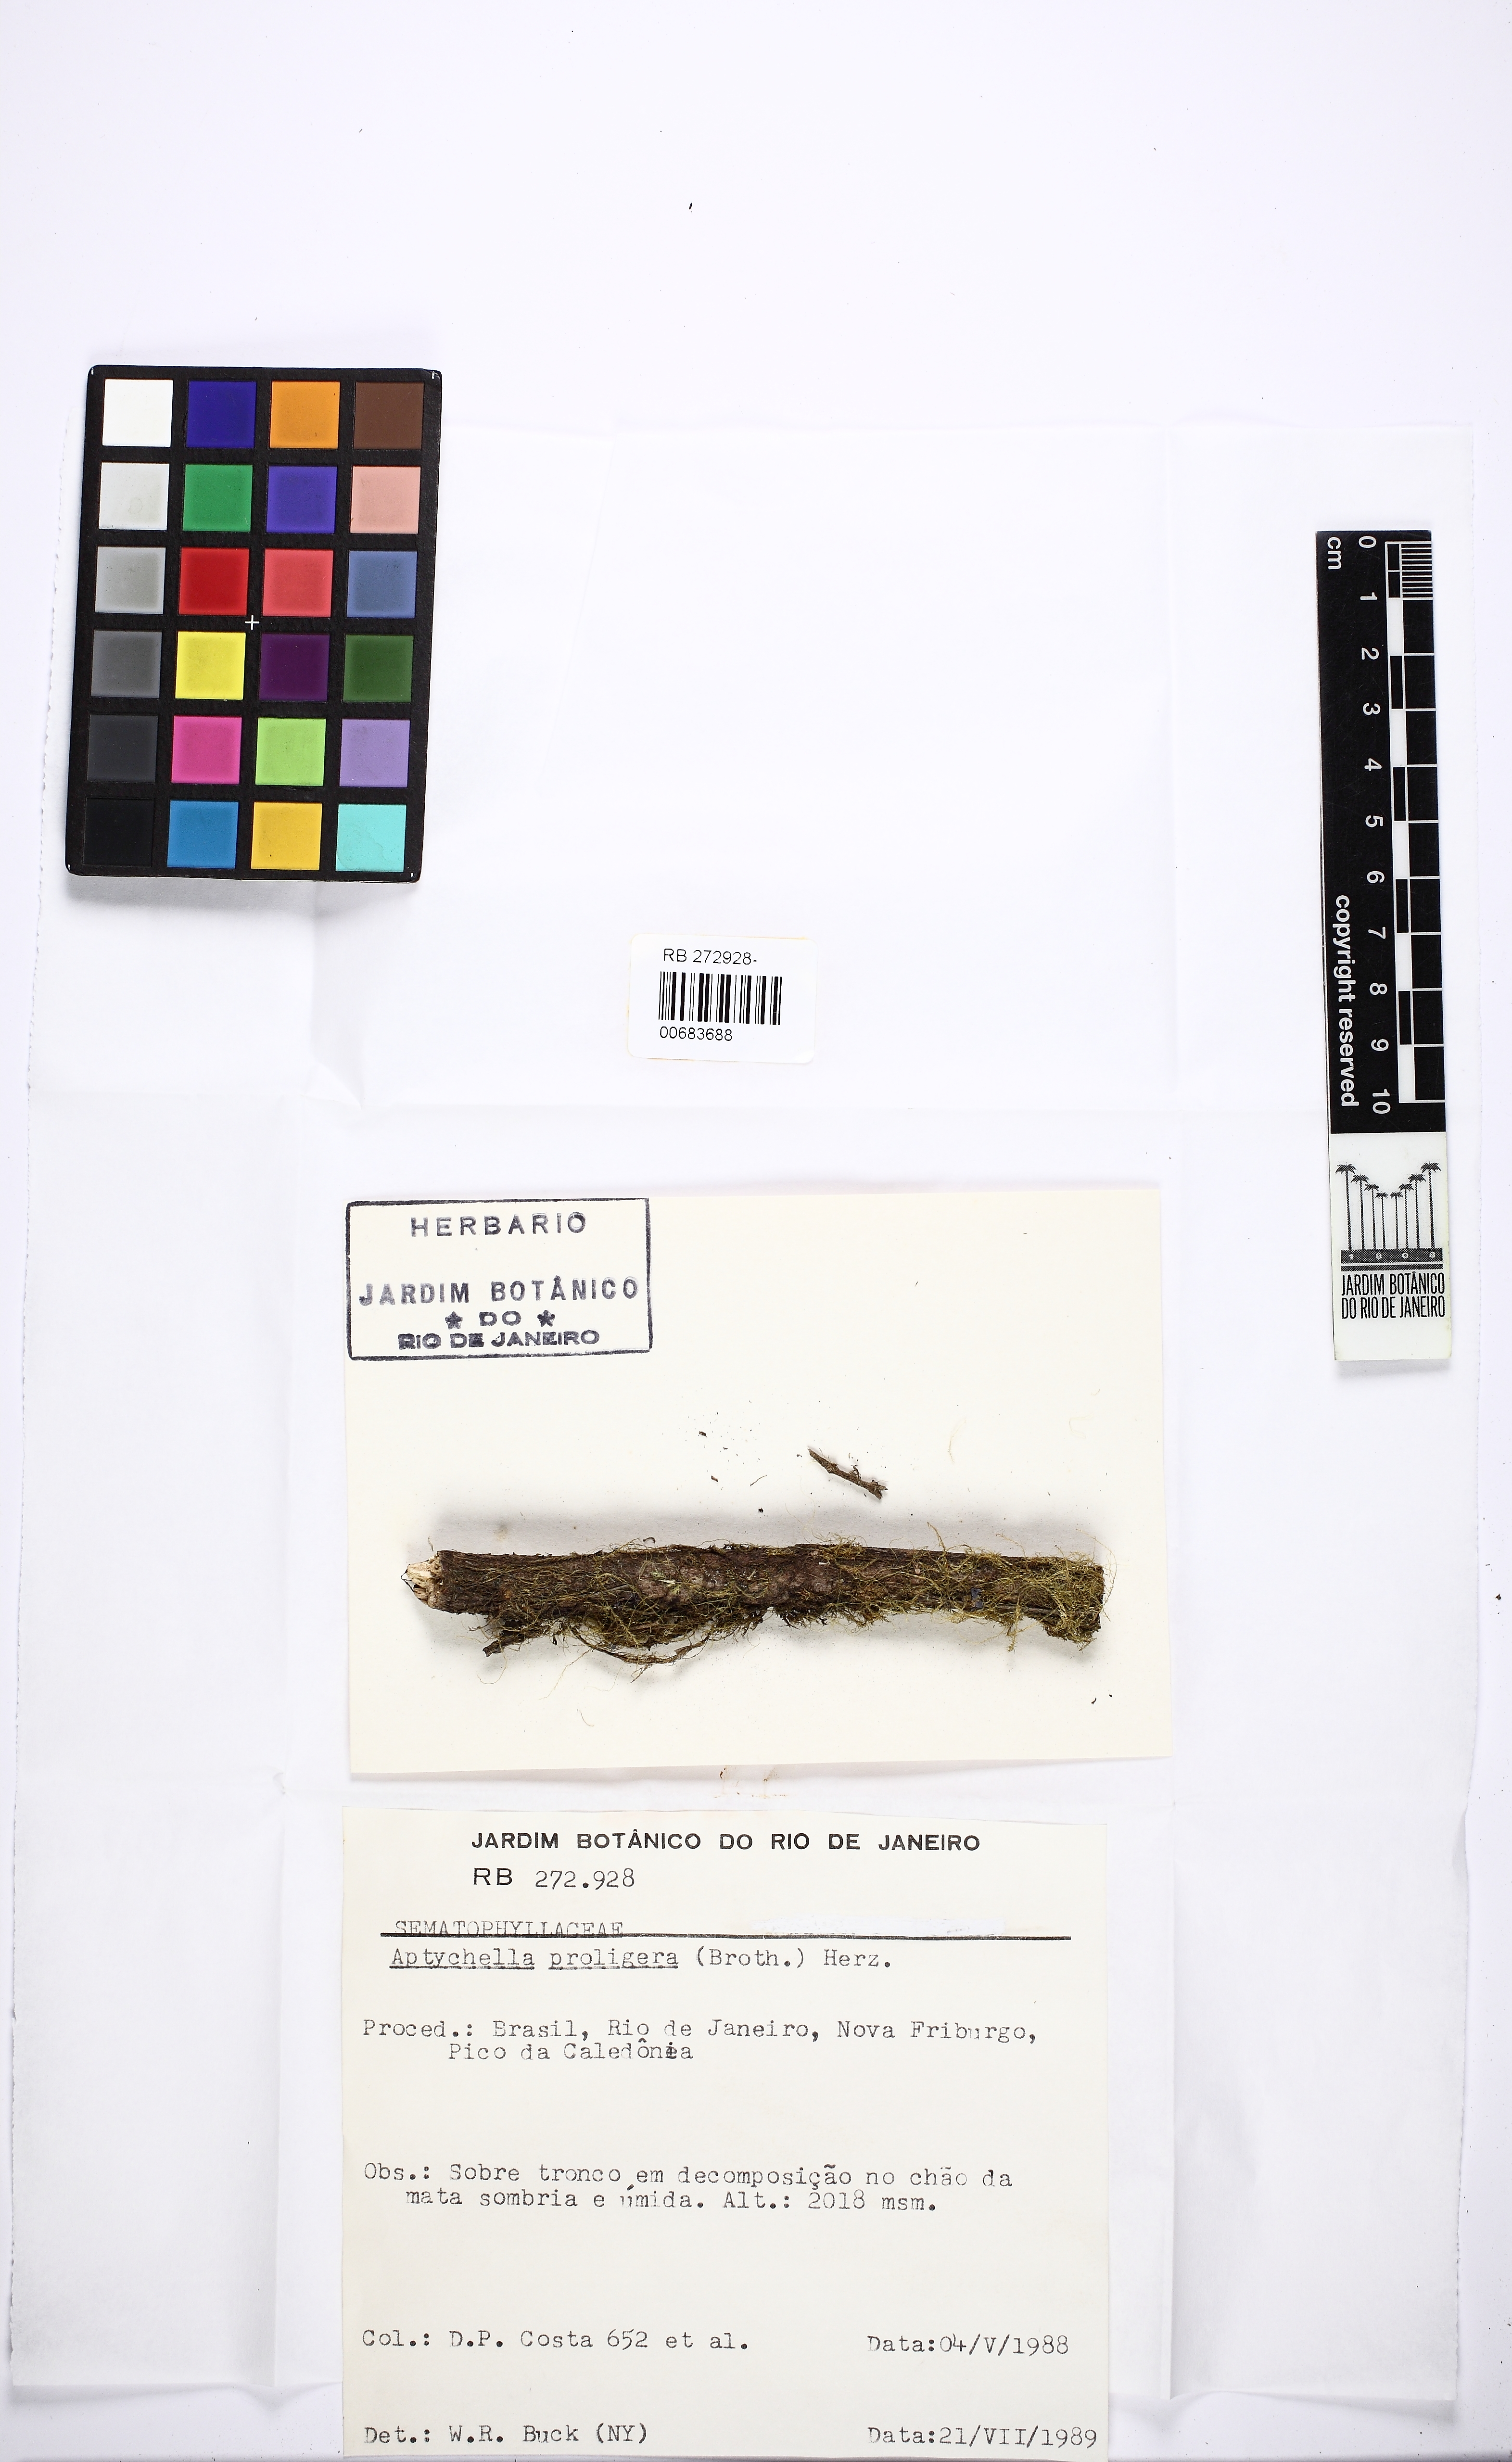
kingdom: Plantae
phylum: Bryophyta
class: Bryopsida
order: Hypnales
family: Pylaisiadelphaceae
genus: Aptychella
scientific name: Aptychella proligera
